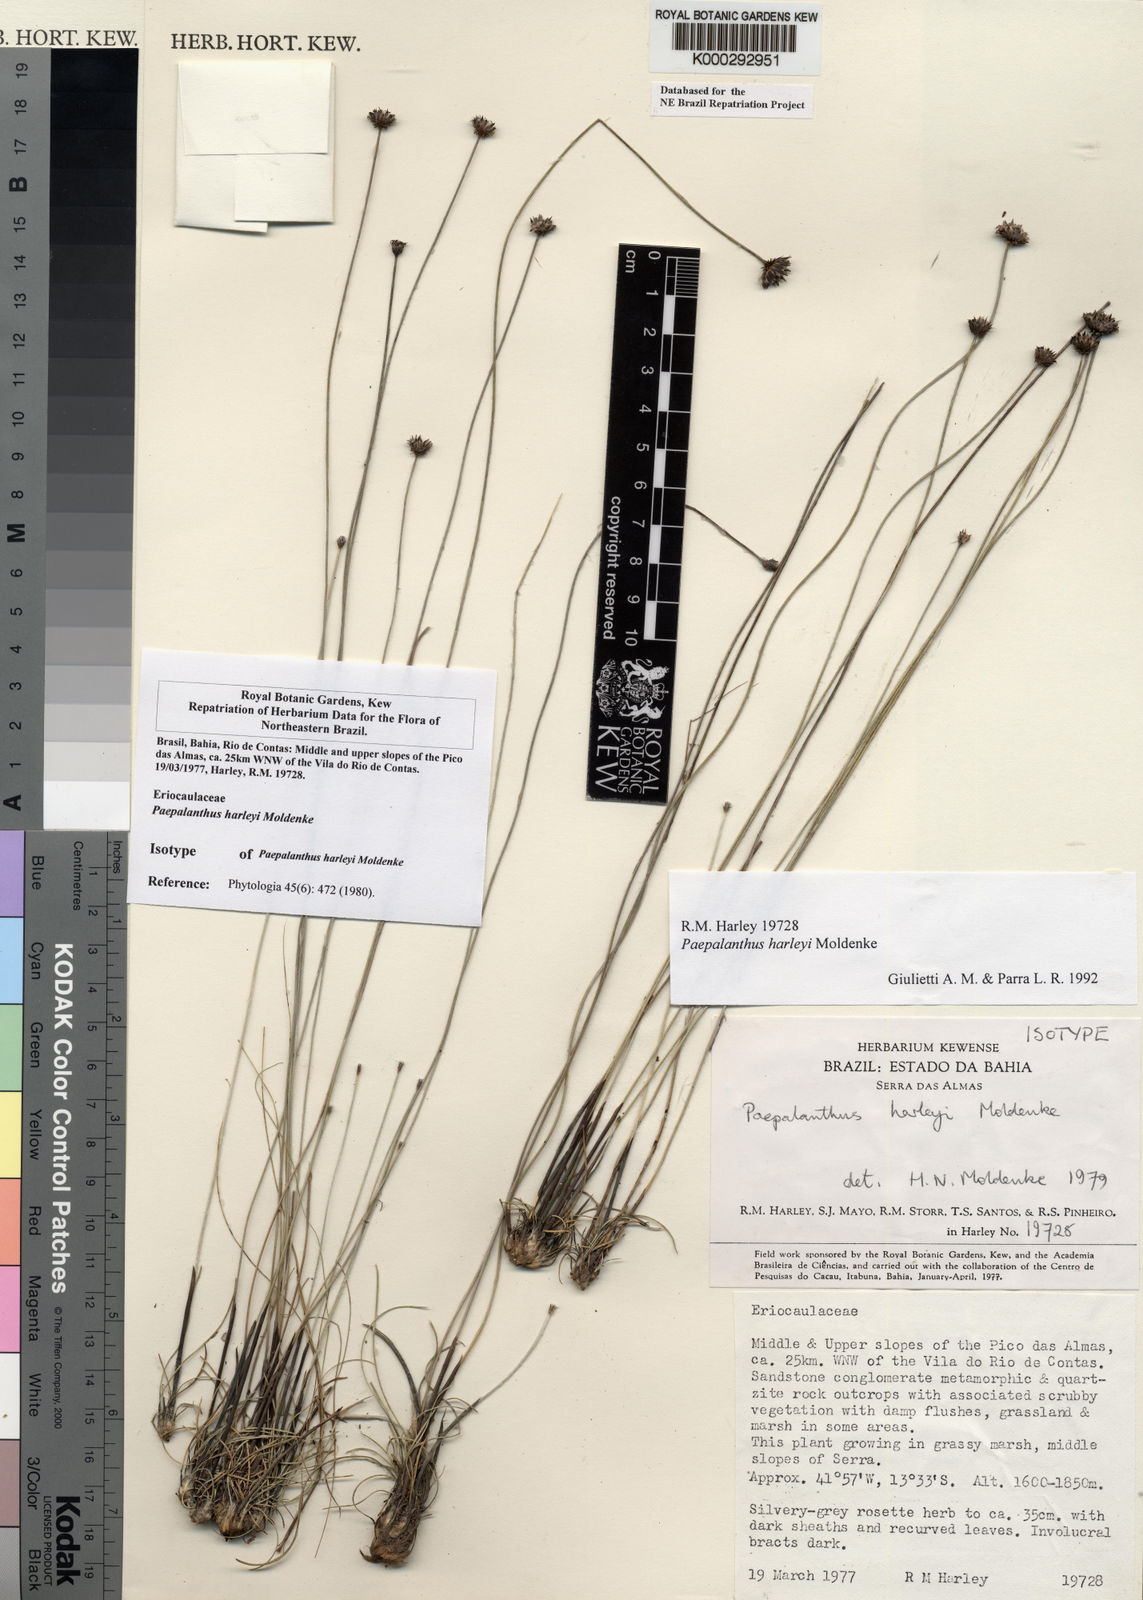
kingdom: Plantae
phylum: Tracheophyta
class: Liliopsida
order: Poales
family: Eriocaulaceae
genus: Paepalanthus
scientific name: Paepalanthus harleyi
